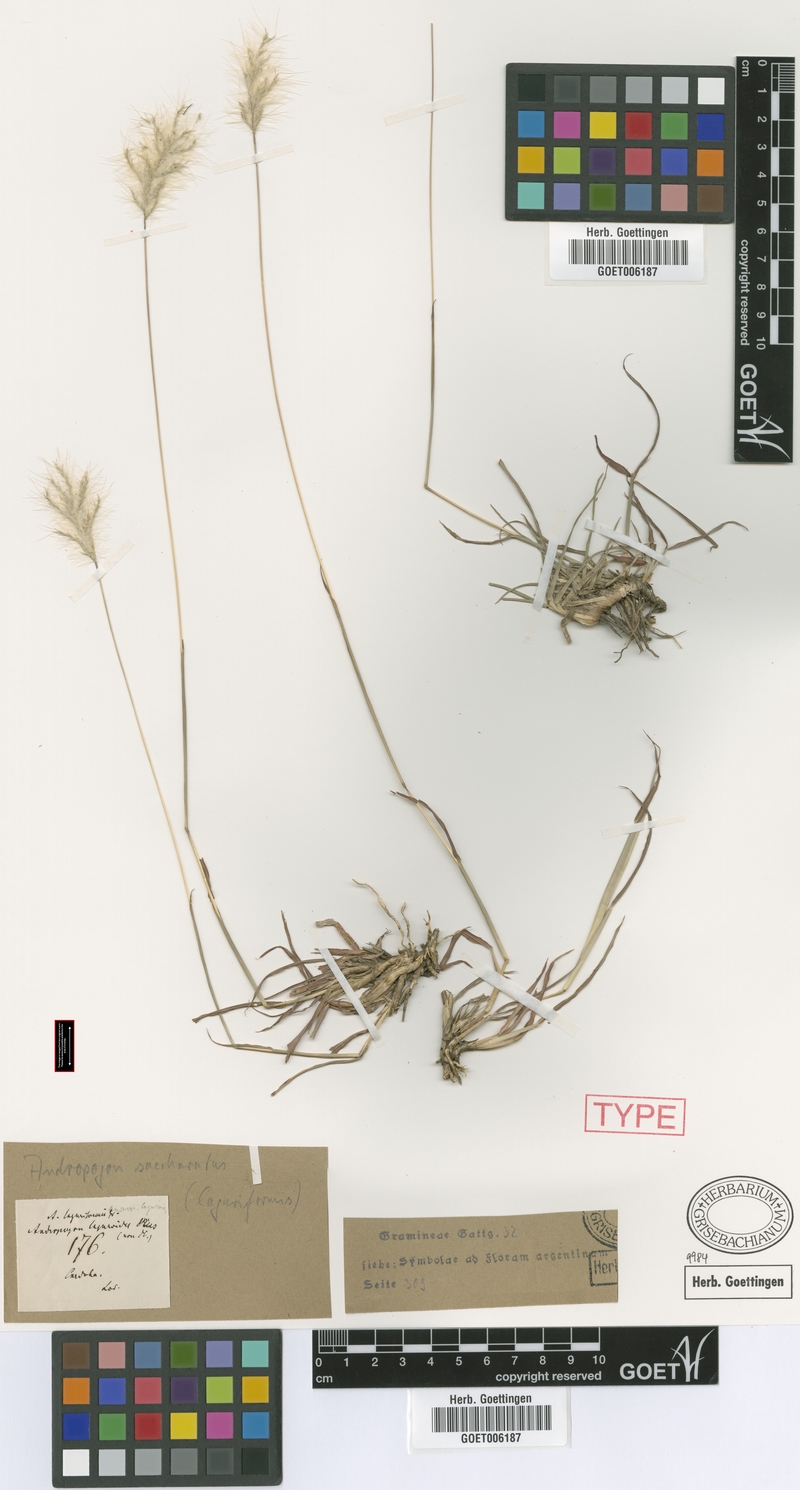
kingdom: Plantae
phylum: Tracheophyta
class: Liliopsida
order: Poales
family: Poaceae
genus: Bothriochloa
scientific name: Bothriochloa laguroides
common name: Silver bluestem
